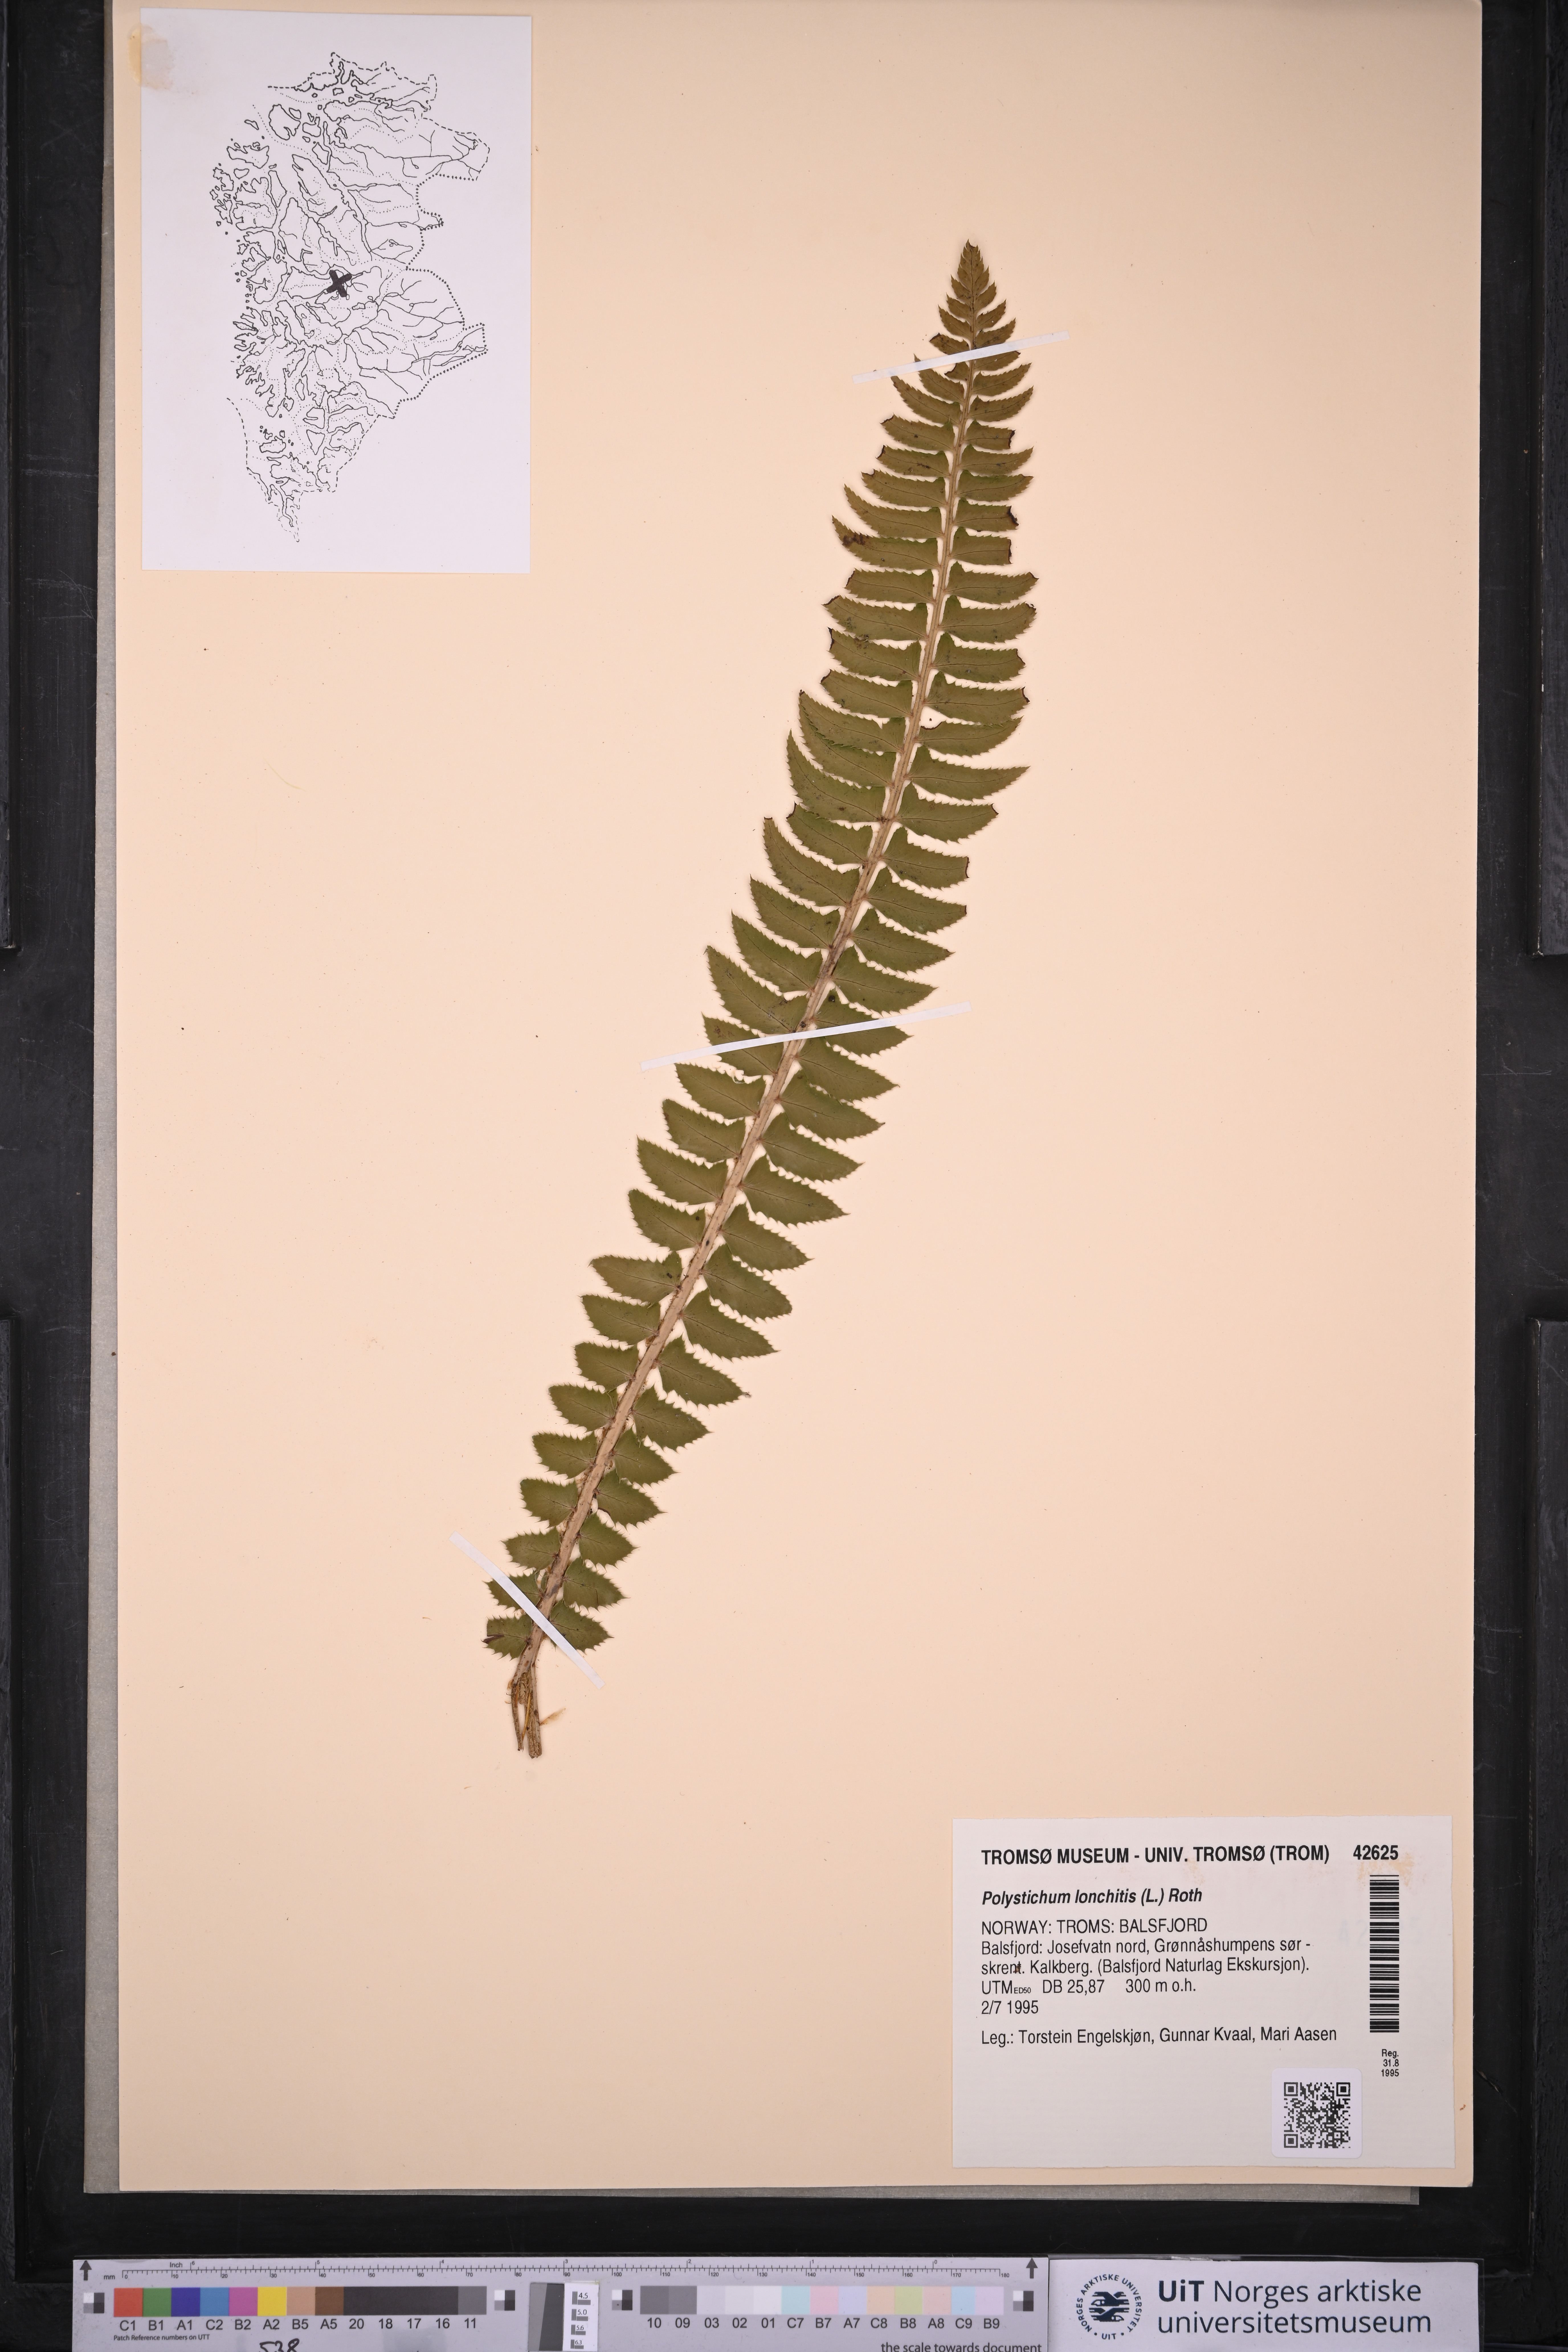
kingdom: Plantae
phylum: Tracheophyta
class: Polypodiopsida
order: Polypodiales
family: Dryopteridaceae
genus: Polystichum
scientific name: Polystichum lonchitis
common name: Holly fern
